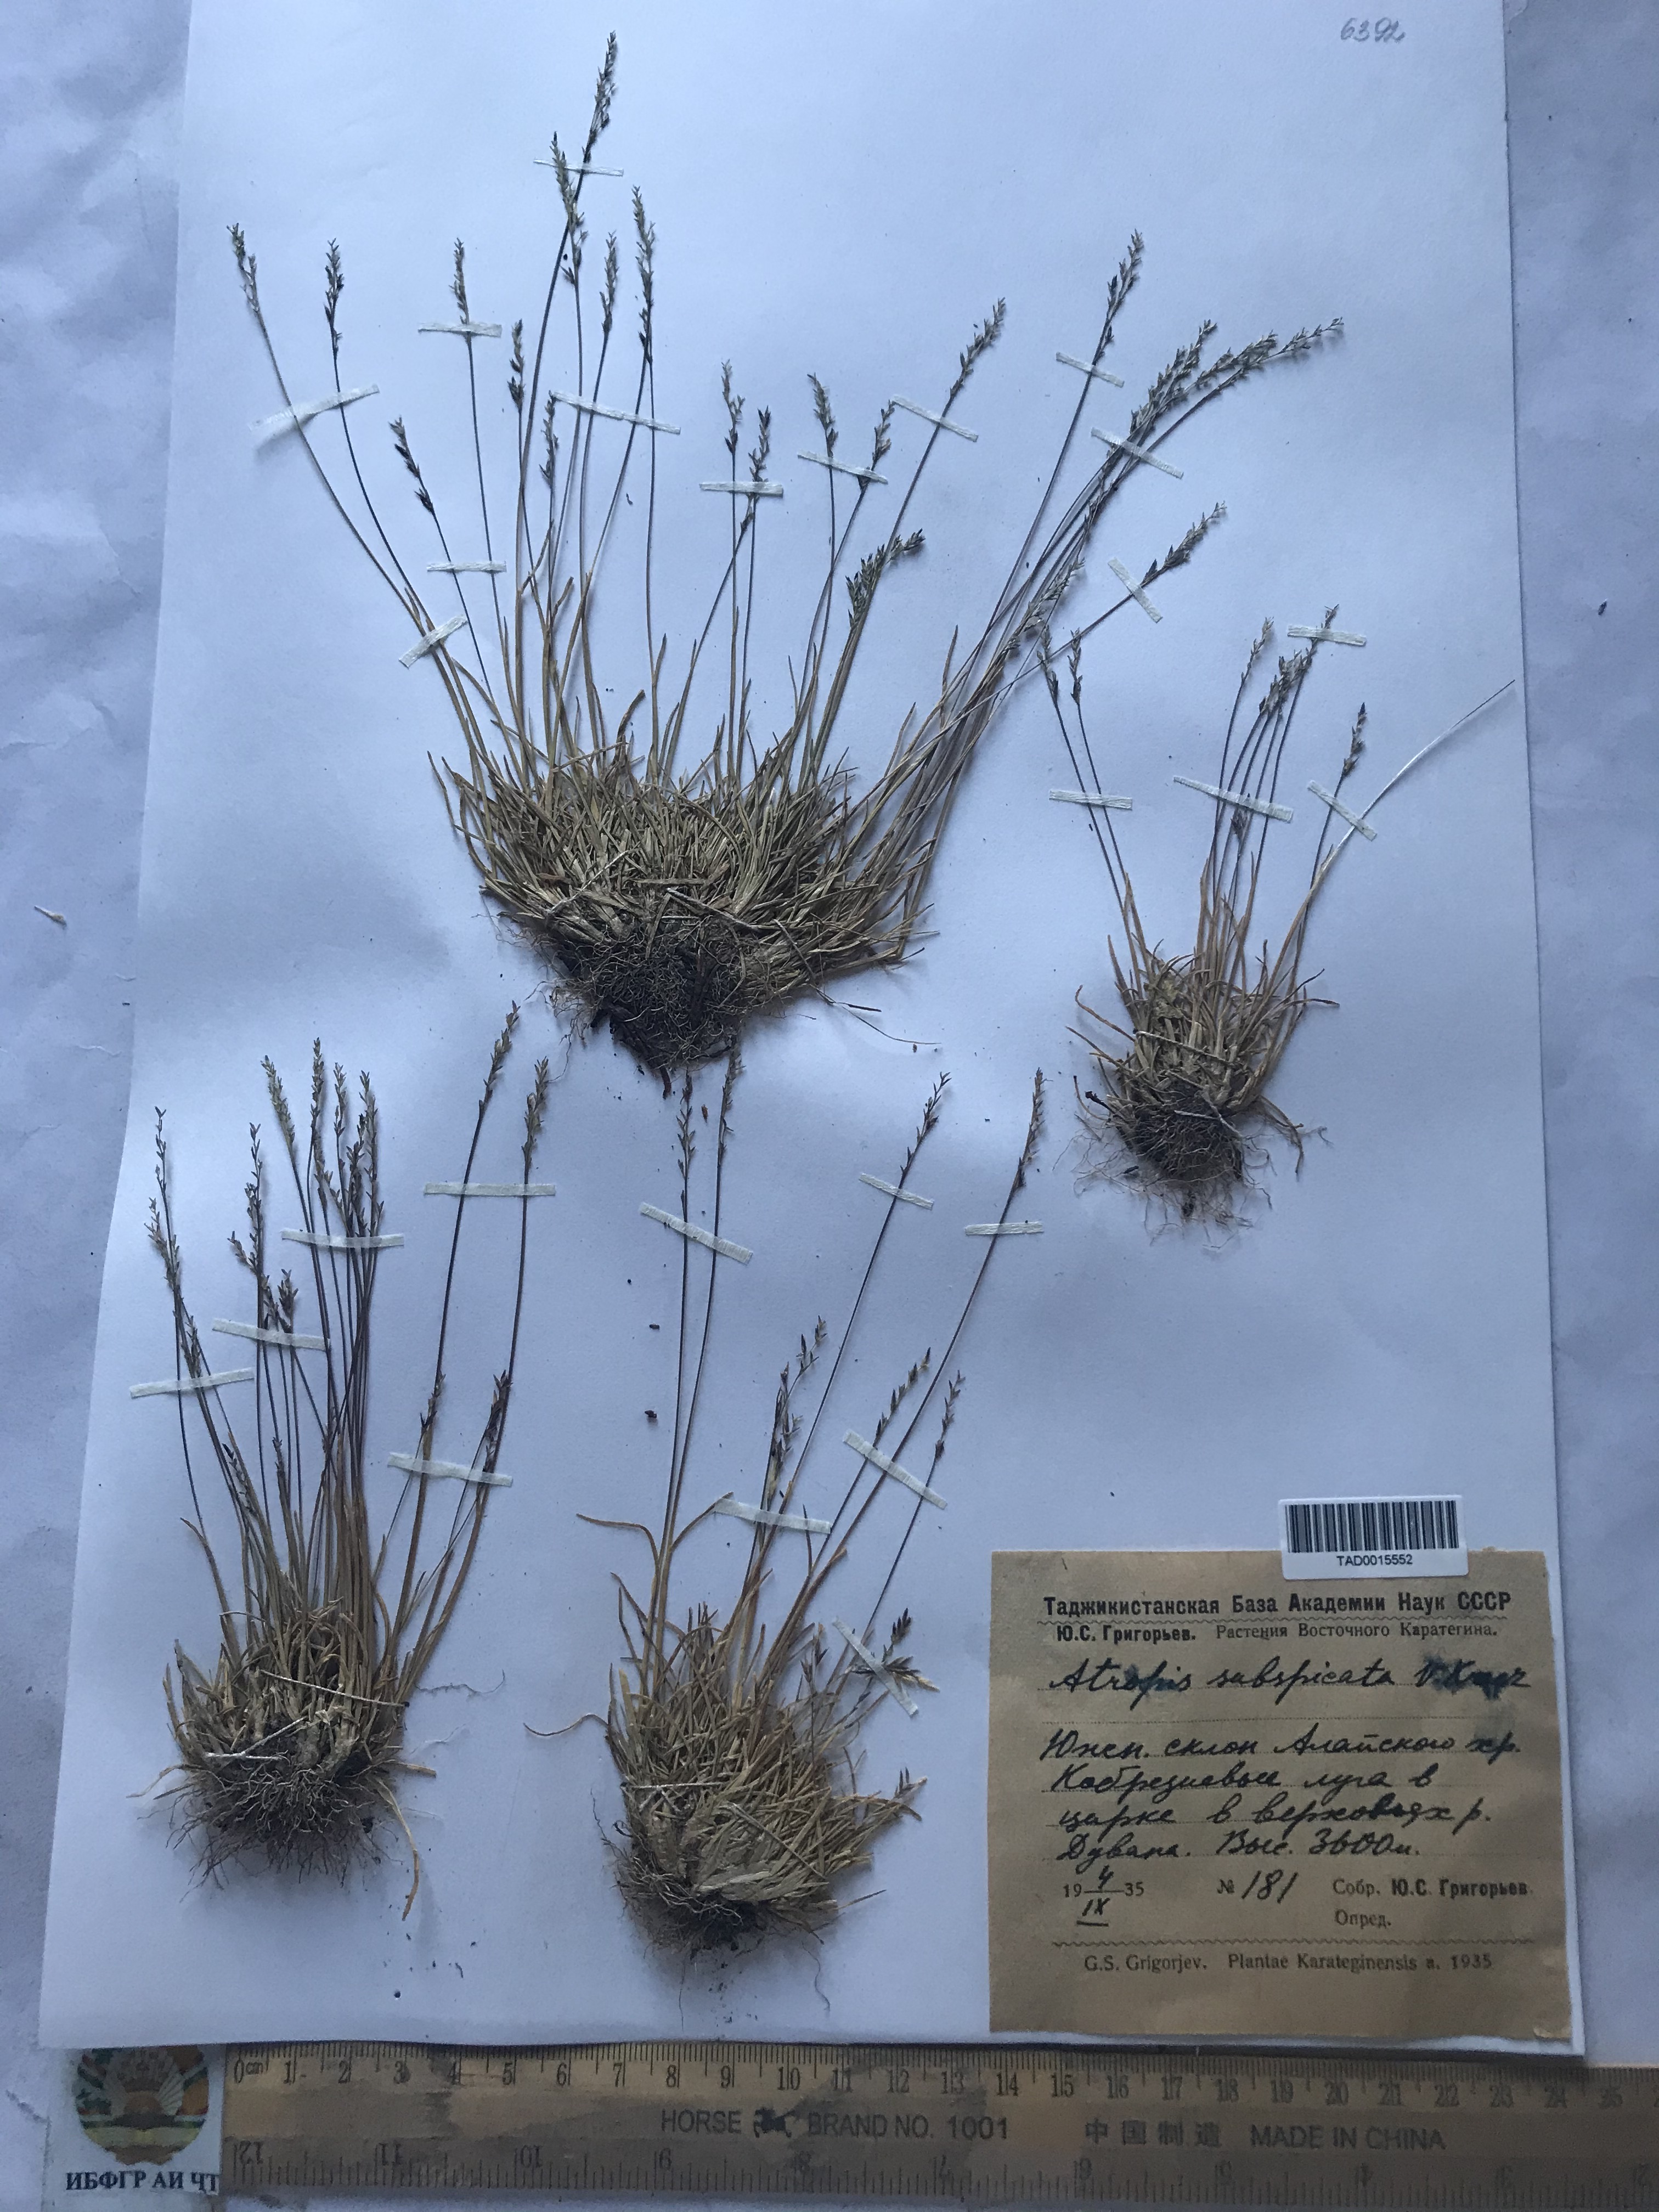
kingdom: Plantae
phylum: Tracheophyta
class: Liliopsida
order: Poales
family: Poaceae
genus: Puccinellia
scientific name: Puccinellia subspicata
